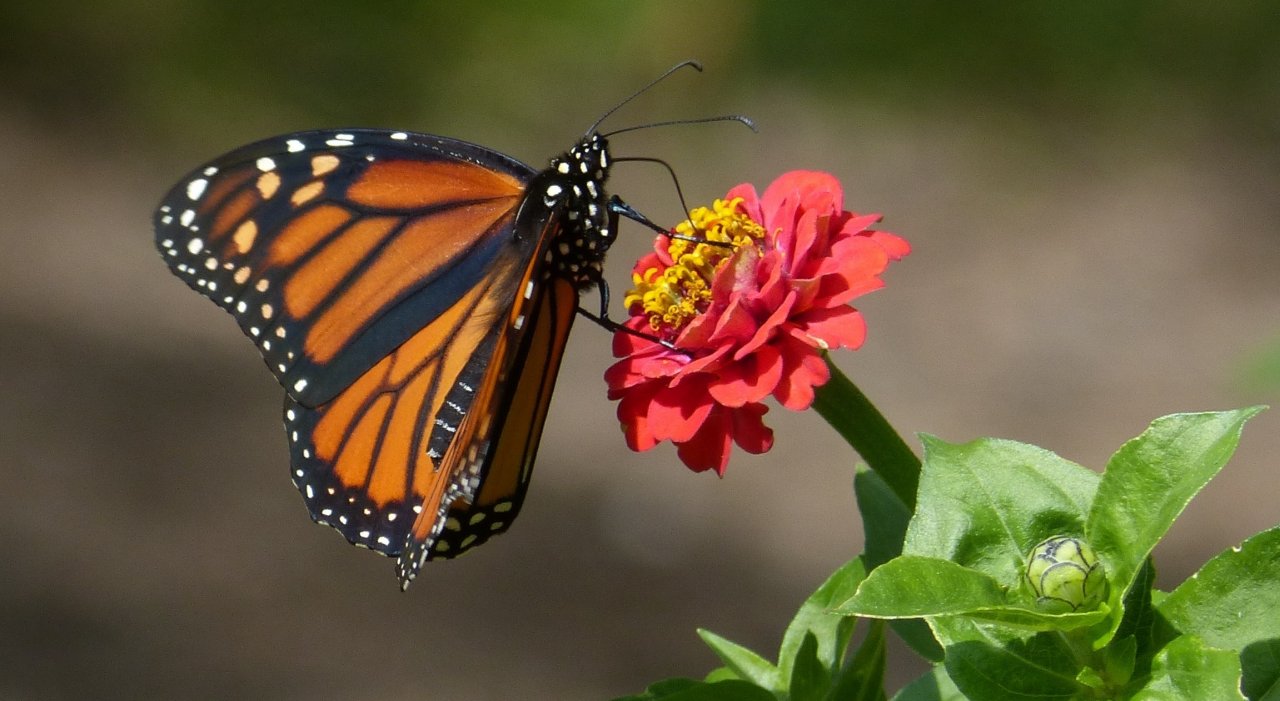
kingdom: Animalia
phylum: Arthropoda
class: Insecta
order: Lepidoptera
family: Nymphalidae
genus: Danaus
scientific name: Danaus plexippus
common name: Monarch
